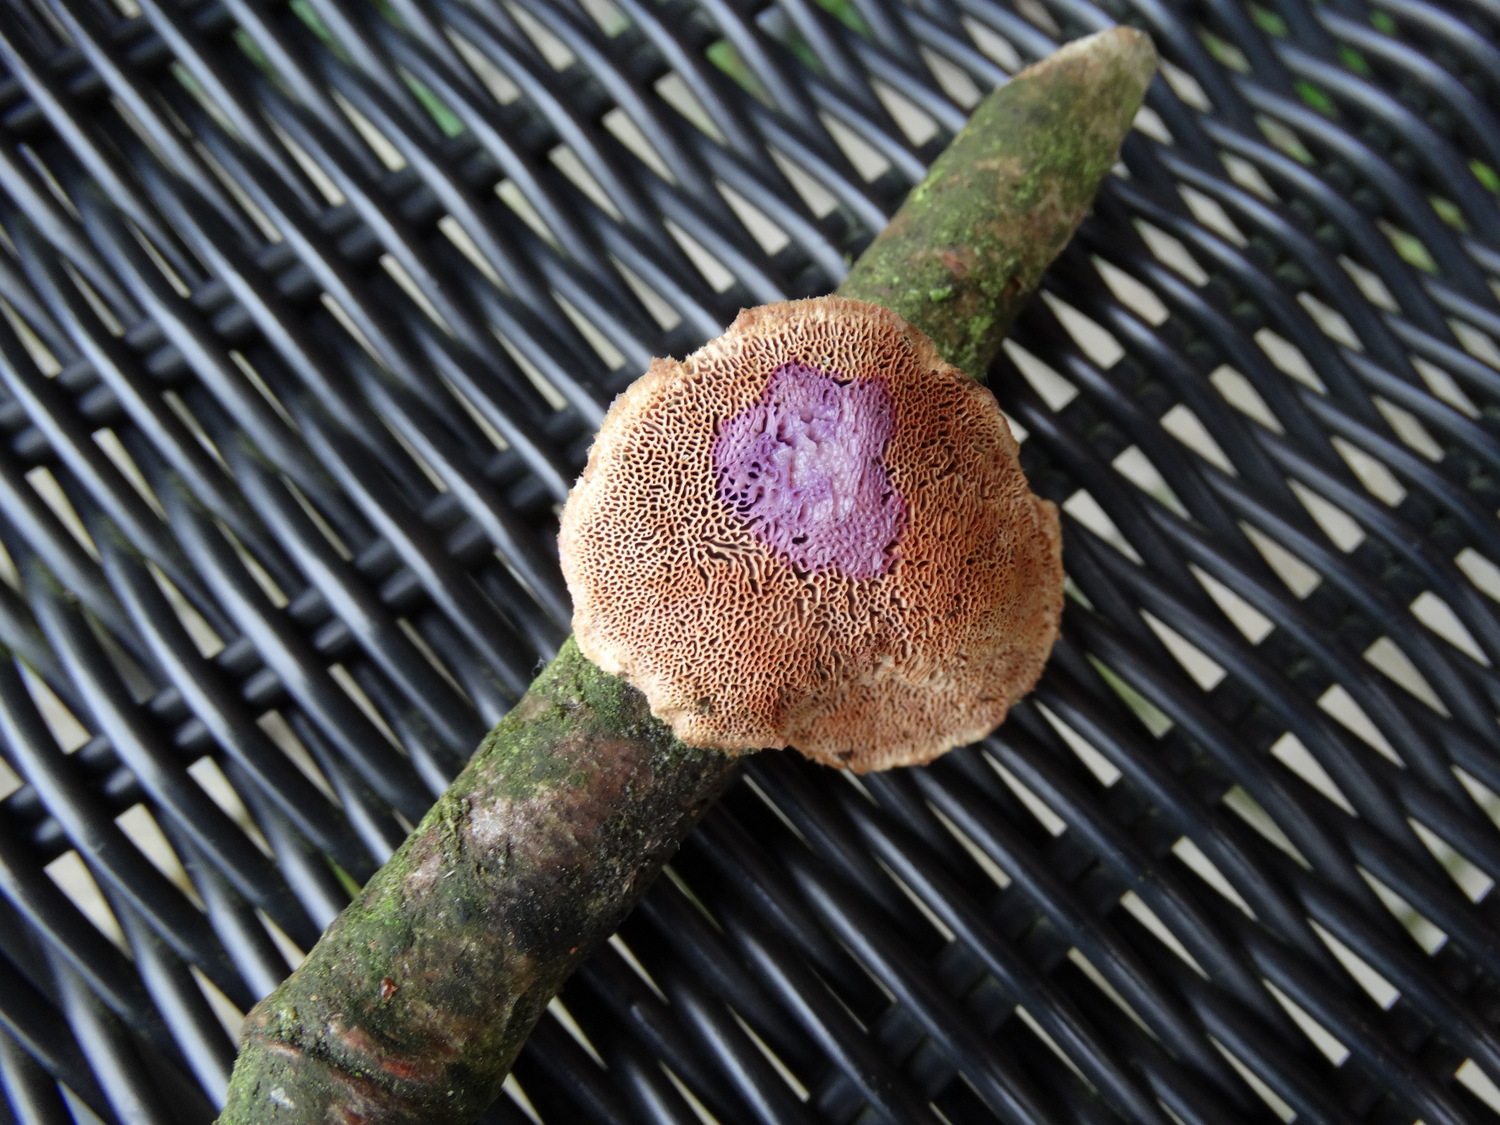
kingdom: Fungi
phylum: Basidiomycota
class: Agaricomycetes
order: Polyporales
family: Phanerochaetaceae
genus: Hapalopilus
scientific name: Hapalopilus rutilans
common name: rødlig okkerporesvamp
